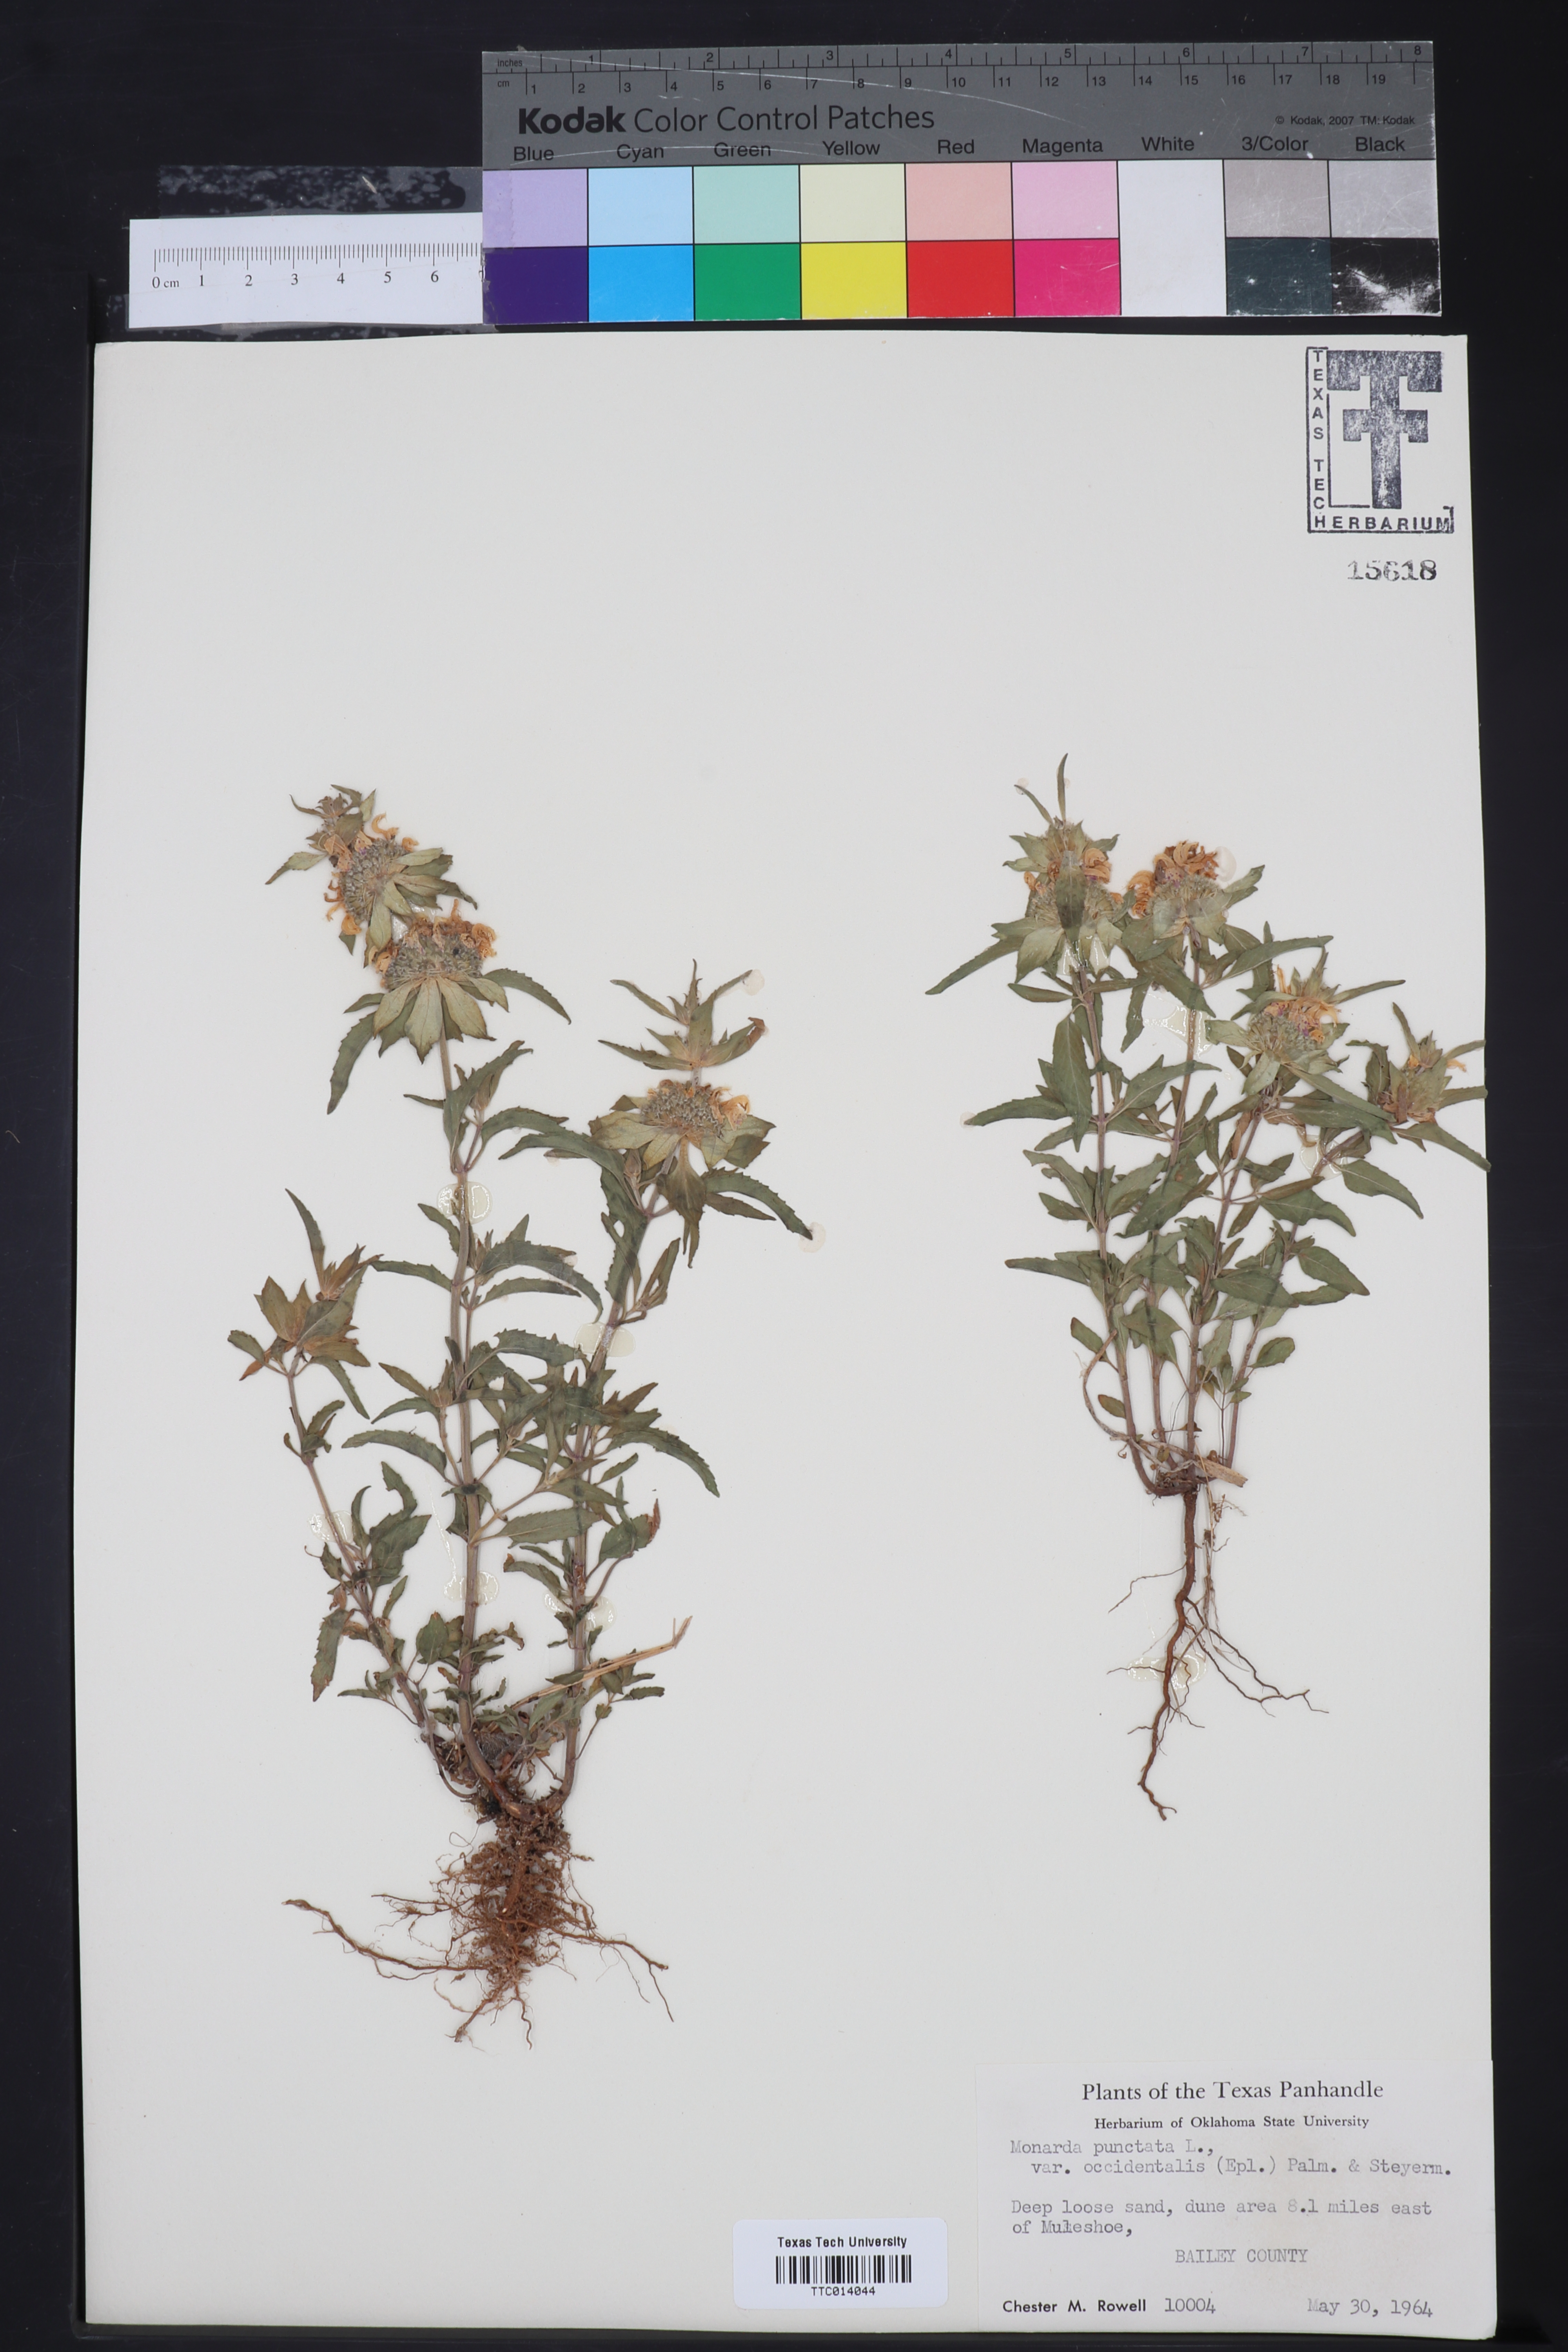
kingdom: Plantae
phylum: Tracheophyta
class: Magnoliopsida
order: Lamiales
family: Lamiaceae
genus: Monarda
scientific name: Monarda punctata
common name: Dotted monarda
